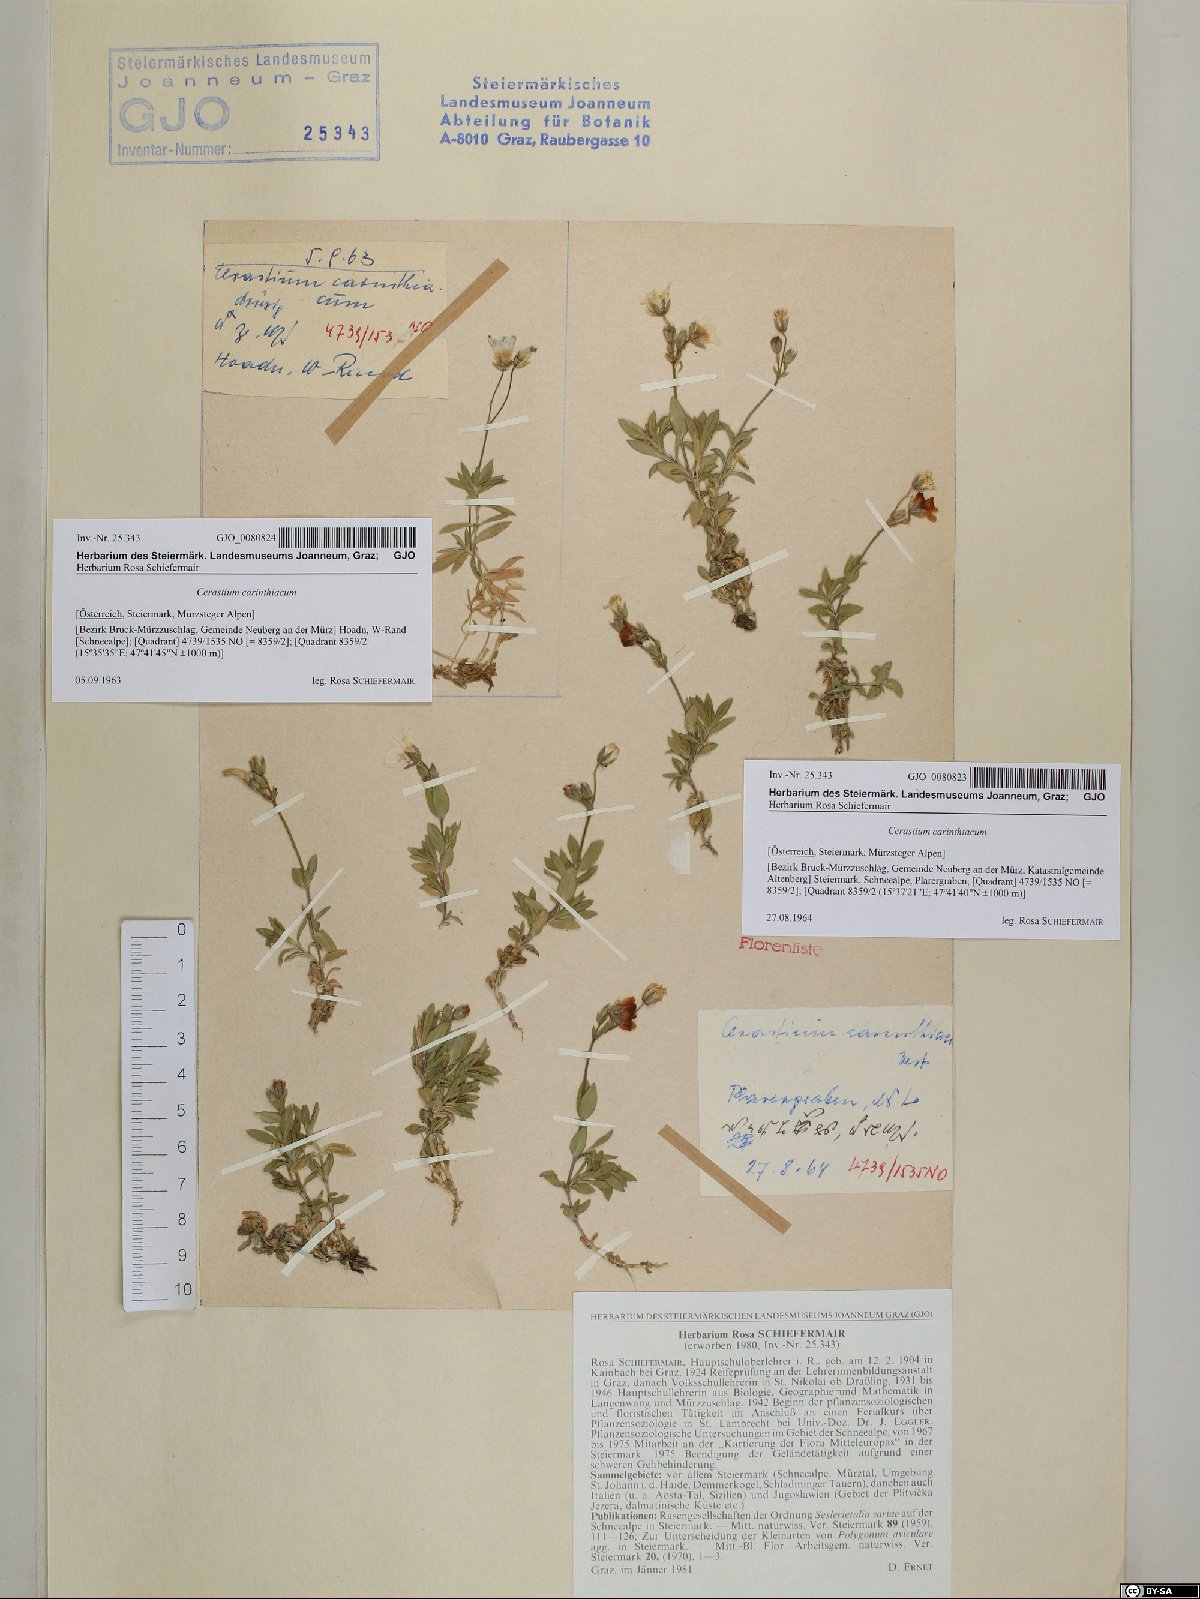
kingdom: Plantae
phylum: Tracheophyta
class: Magnoliopsida
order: Caryophyllales
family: Caryophyllaceae
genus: Cerastium
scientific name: Cerastium carinthiacum
